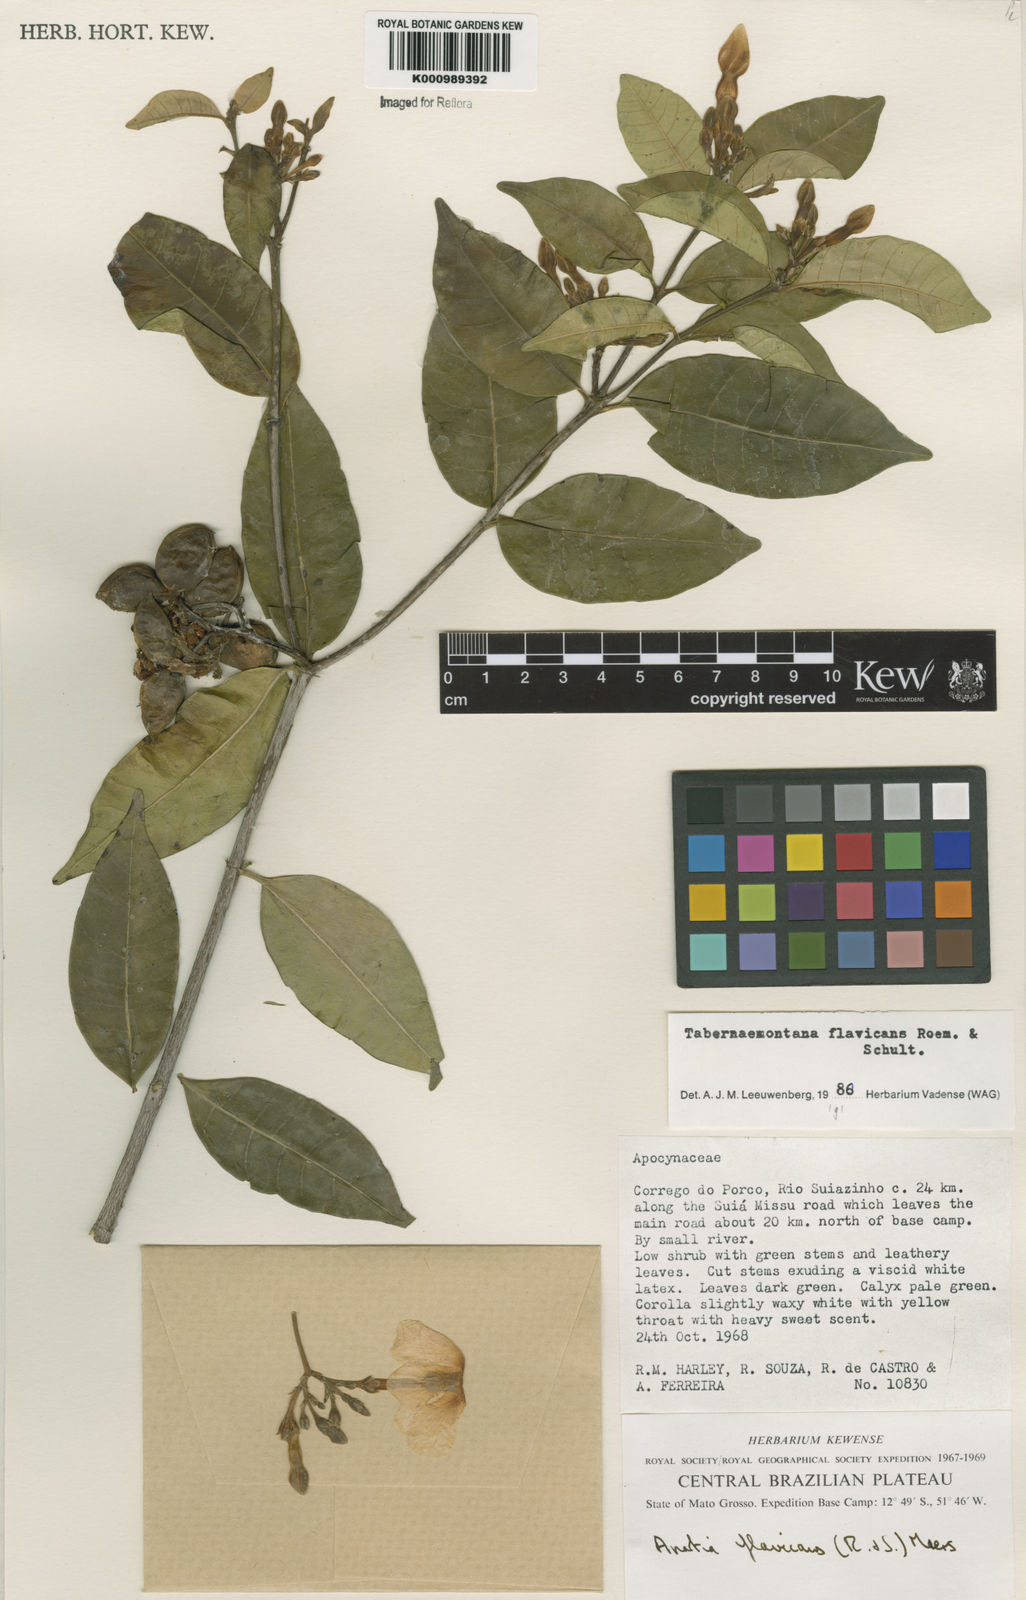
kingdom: Plantae
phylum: Tracheophyta
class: Magnoliopsida
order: Gentianales
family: Apocynaceae
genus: Tabernaemontana
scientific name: Tabernaemontana flavicans
